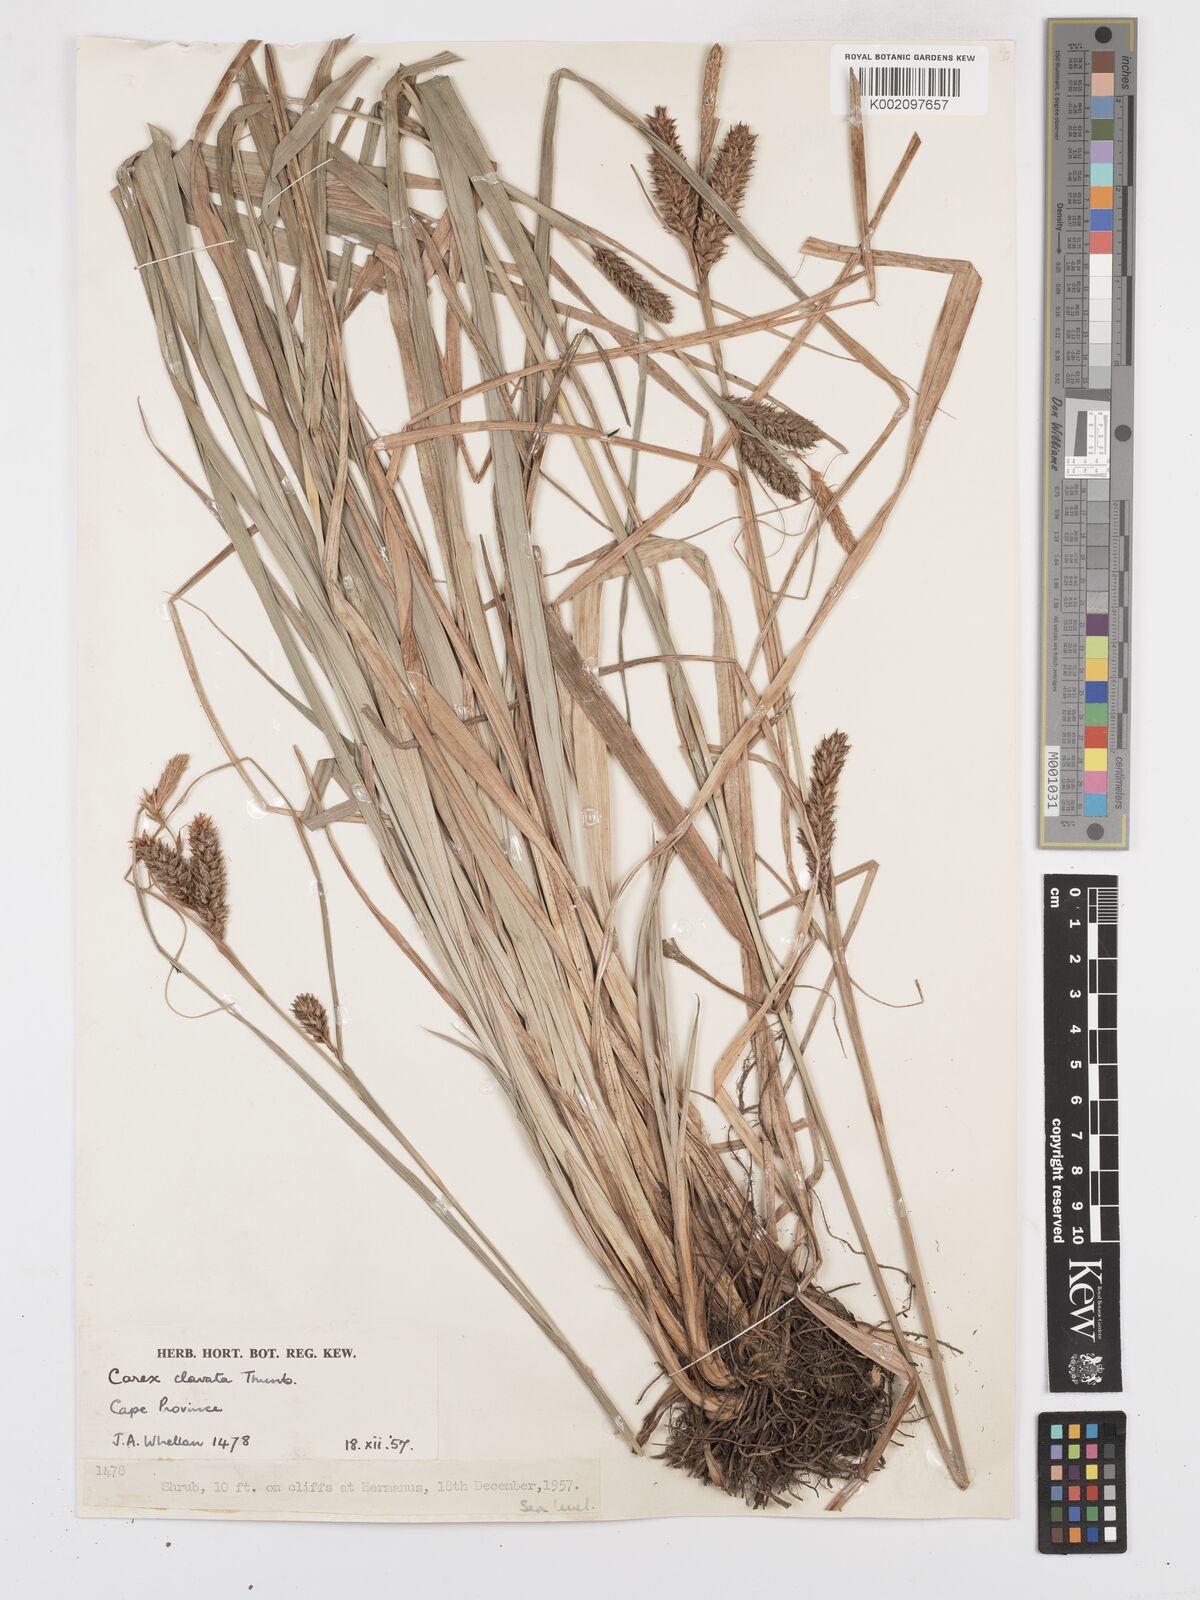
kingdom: Plantae
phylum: Tracheophyta
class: Liliopsida
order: Poales
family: Cyperaceae
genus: Carex
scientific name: Carex clavata
